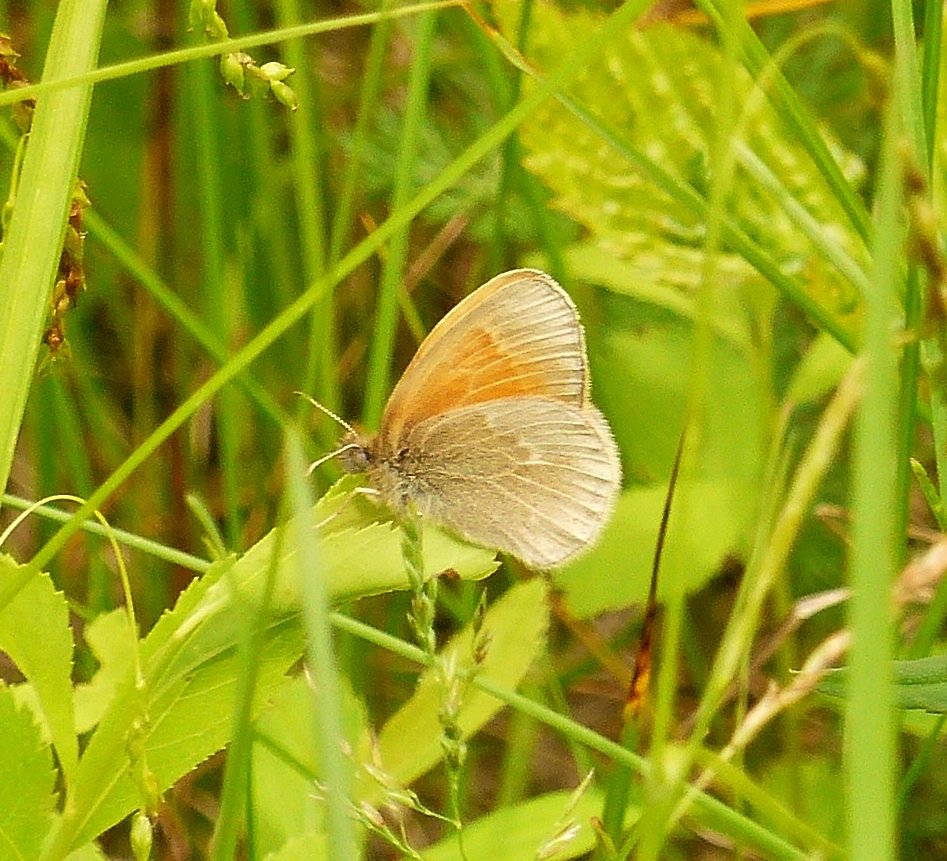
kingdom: Animalia
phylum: Arthropoda
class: Insecta
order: Lepidoptera
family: Nymphalidae
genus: Coenonympha
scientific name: Coenonympha tullia
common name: Large Heath
